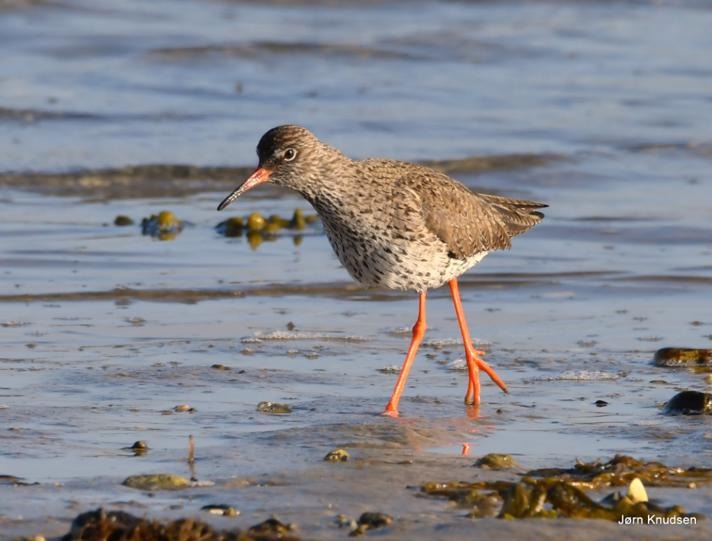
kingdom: Animalia
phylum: Chordata
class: Aves
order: Charadriiformes
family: Scolopacidae
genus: Tringa
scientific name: Tringa totanus
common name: Rødben
